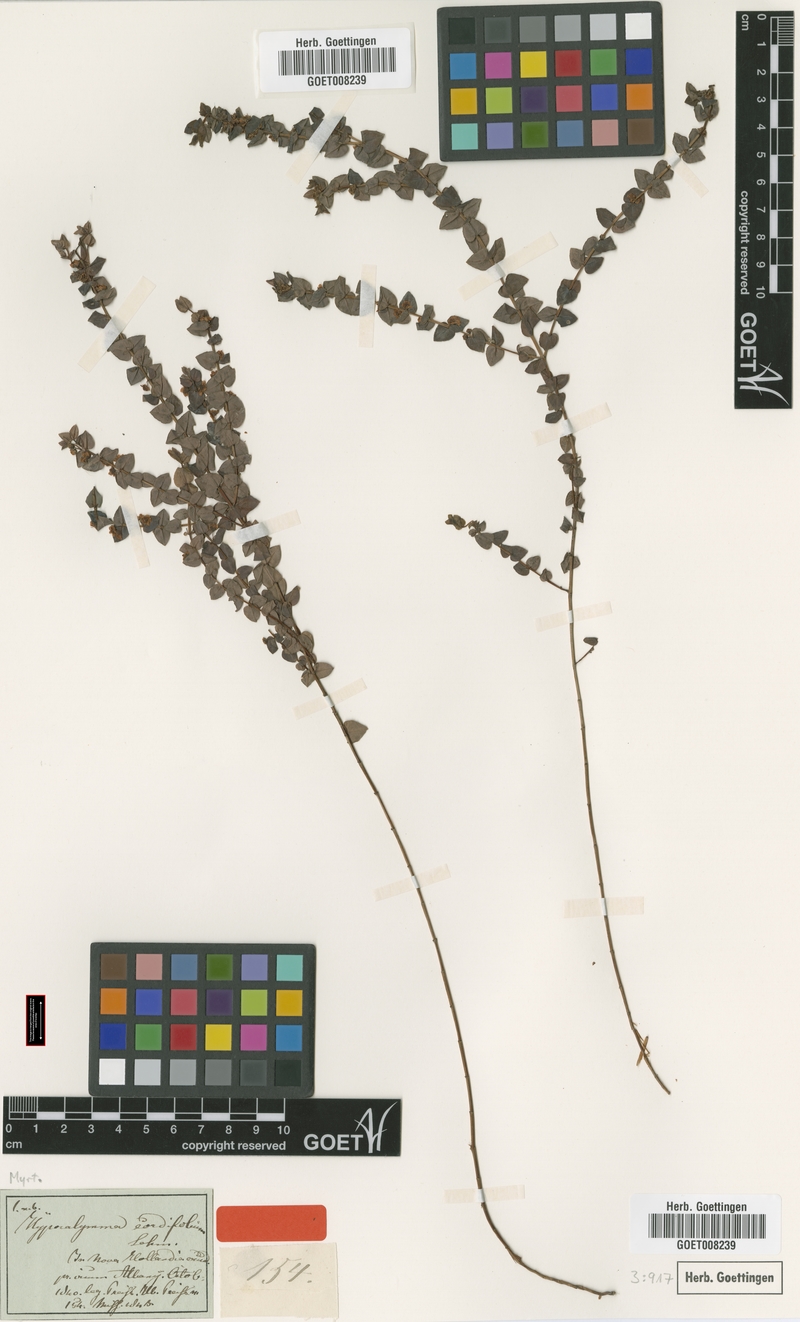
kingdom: Plantae
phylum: Tracheophyta
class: Magnoliopsida
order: Myrtales
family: Myrtaceae
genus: Hypocalymma
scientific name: Hypocalymma cordifolium
